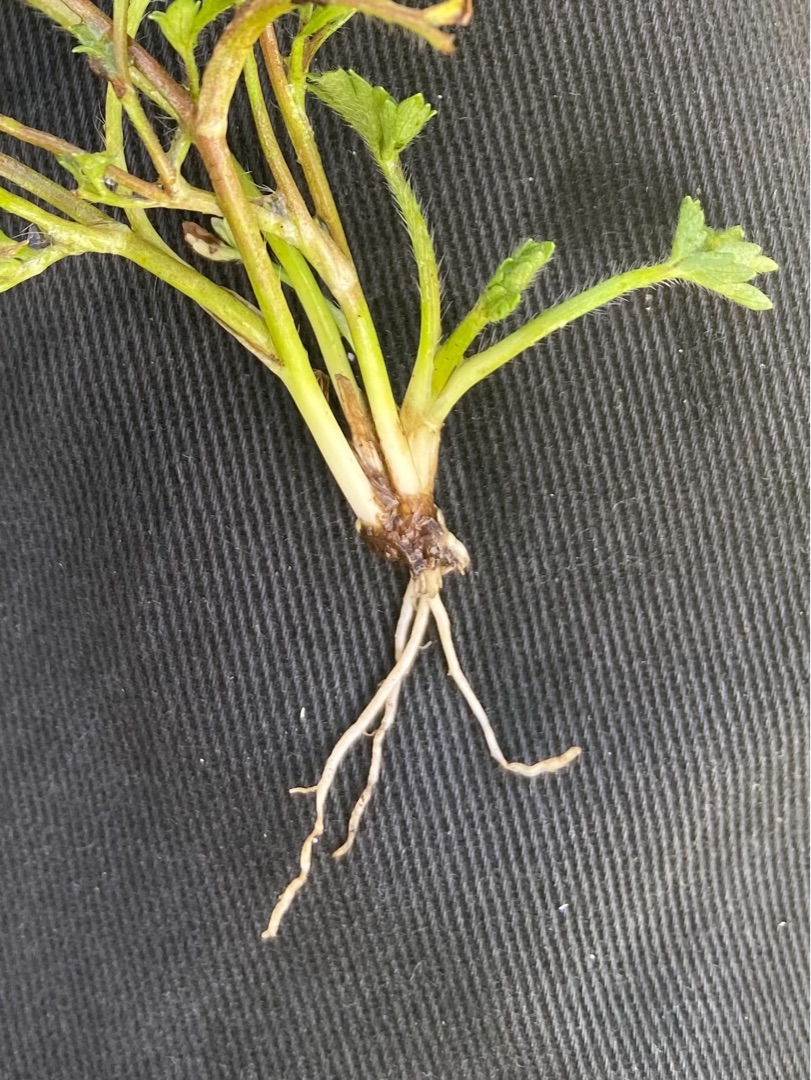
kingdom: Plantae
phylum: Tracheophyta
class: Magnoliopsida
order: Ranunculales
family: Ranunculaceae
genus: Ranunculus
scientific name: Ranunculus sardous
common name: Stivhåret ranunkel
